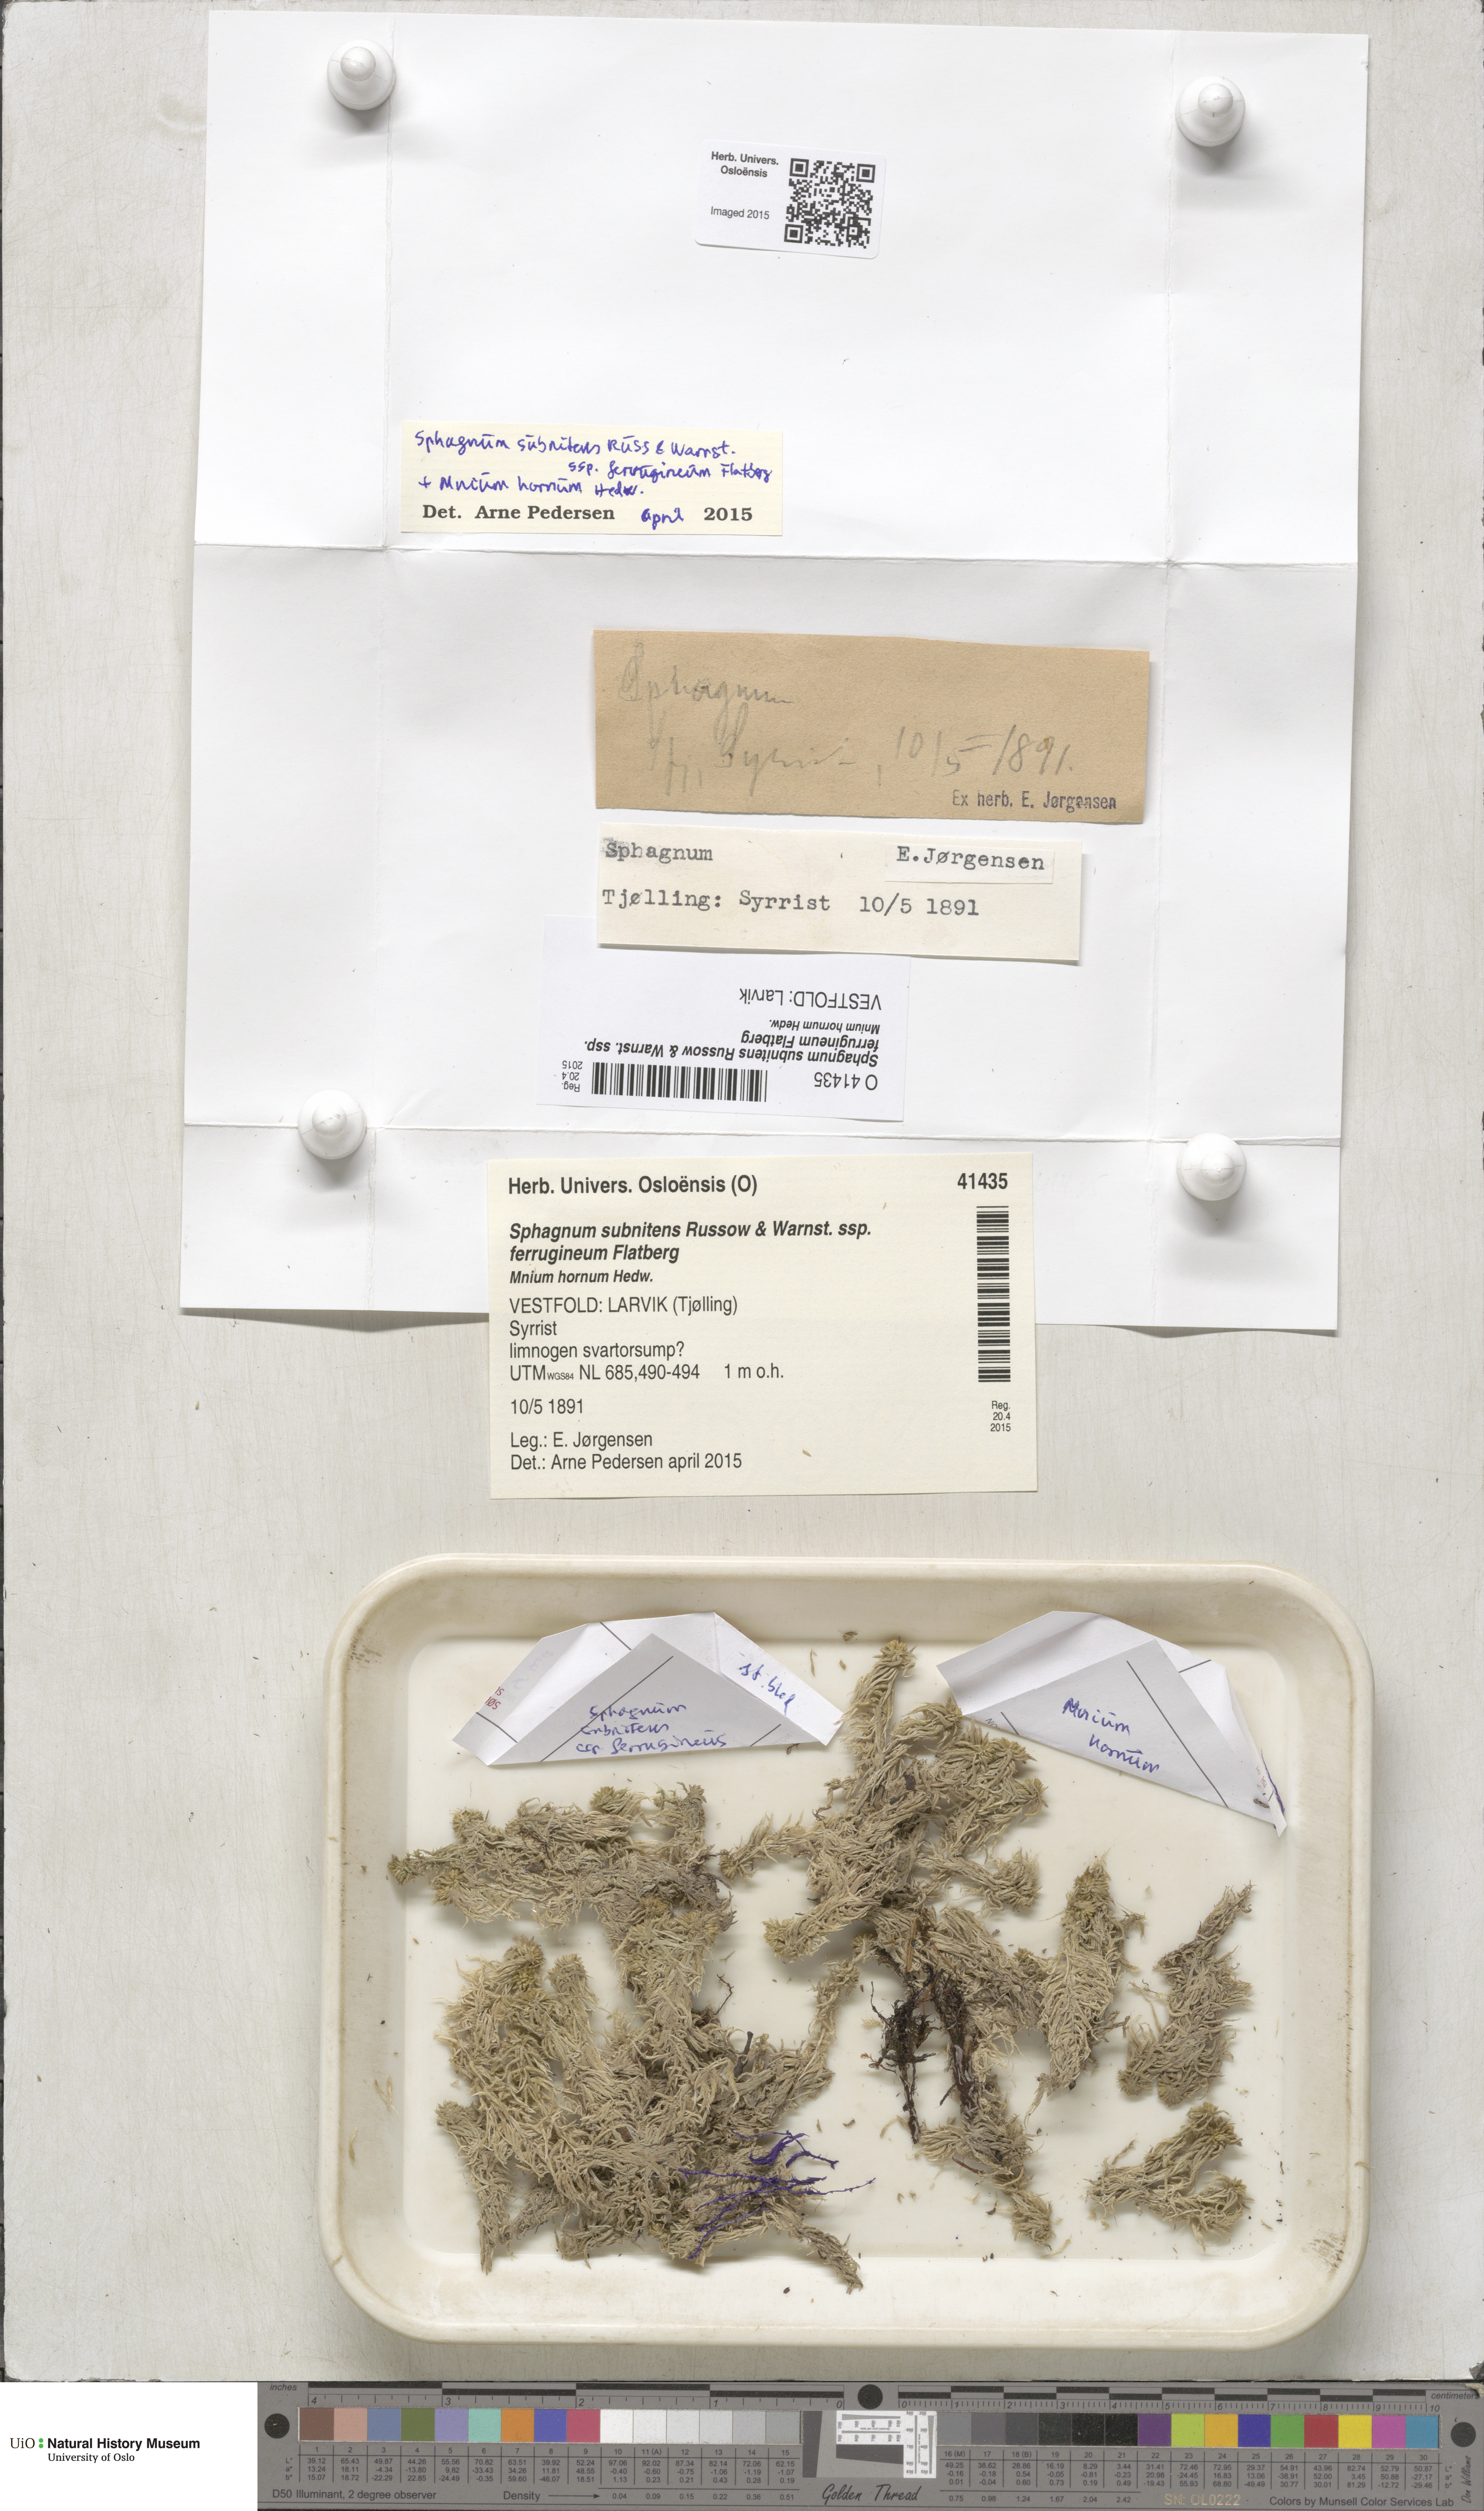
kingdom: Plantae
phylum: Bryophyta
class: Sphagnopsida
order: Sphagnales
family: Sphagnaceae
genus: Sphagnum
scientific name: Sphagnum subnitens
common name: Lustrous bog-moss
